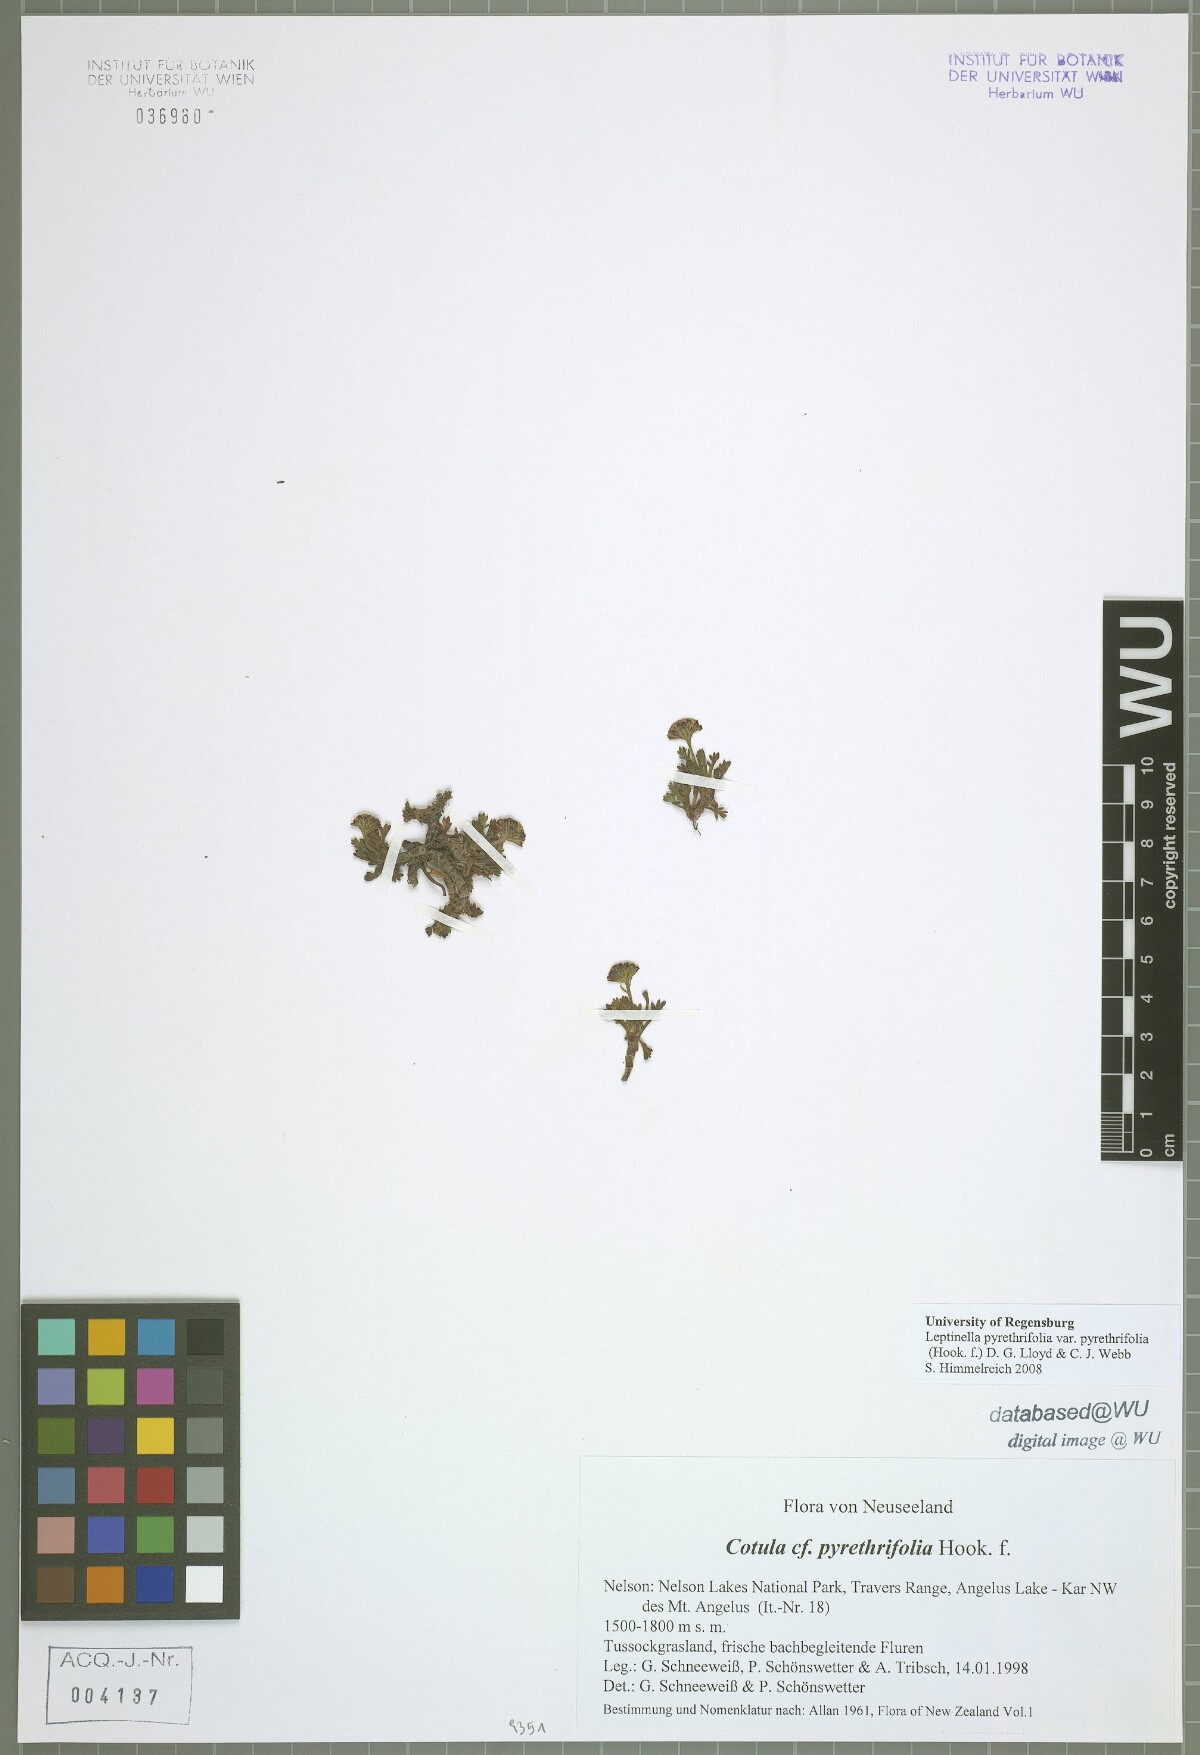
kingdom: Plantae
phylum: Tracheophyta
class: Magnoliopsida
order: Asterales
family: Asteraceae
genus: Leptinella
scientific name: Leptinella pyrethrifolia
